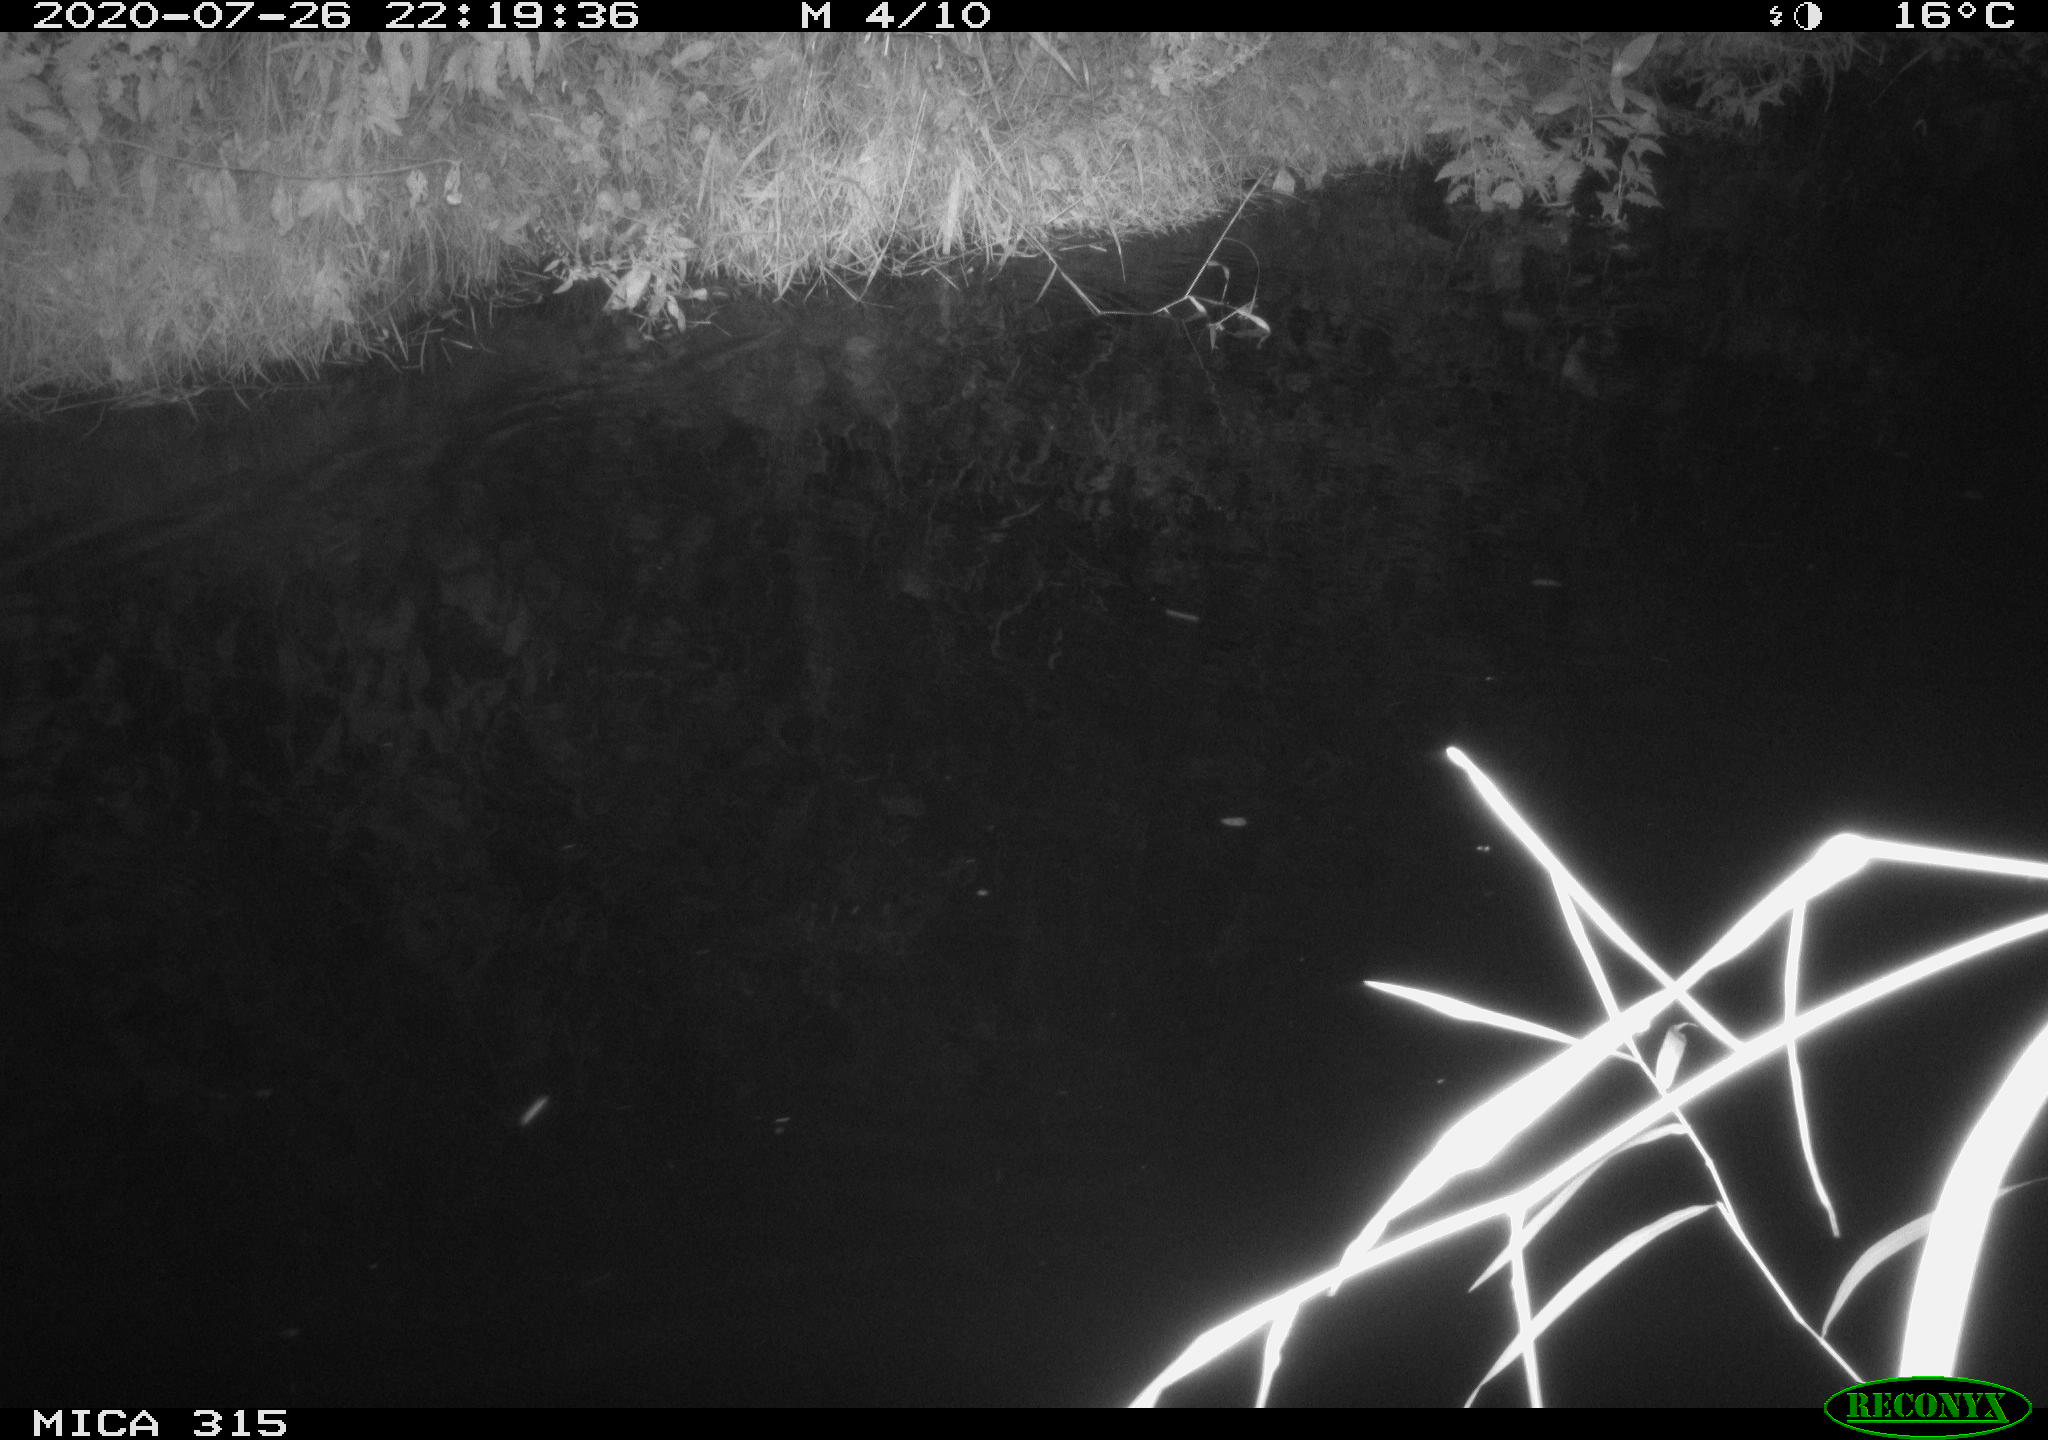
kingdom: Animalia
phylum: Chordata
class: Aves
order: Anseriformes
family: Anatidae
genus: Anas
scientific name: Anas platyrhynchos
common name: Mallard
